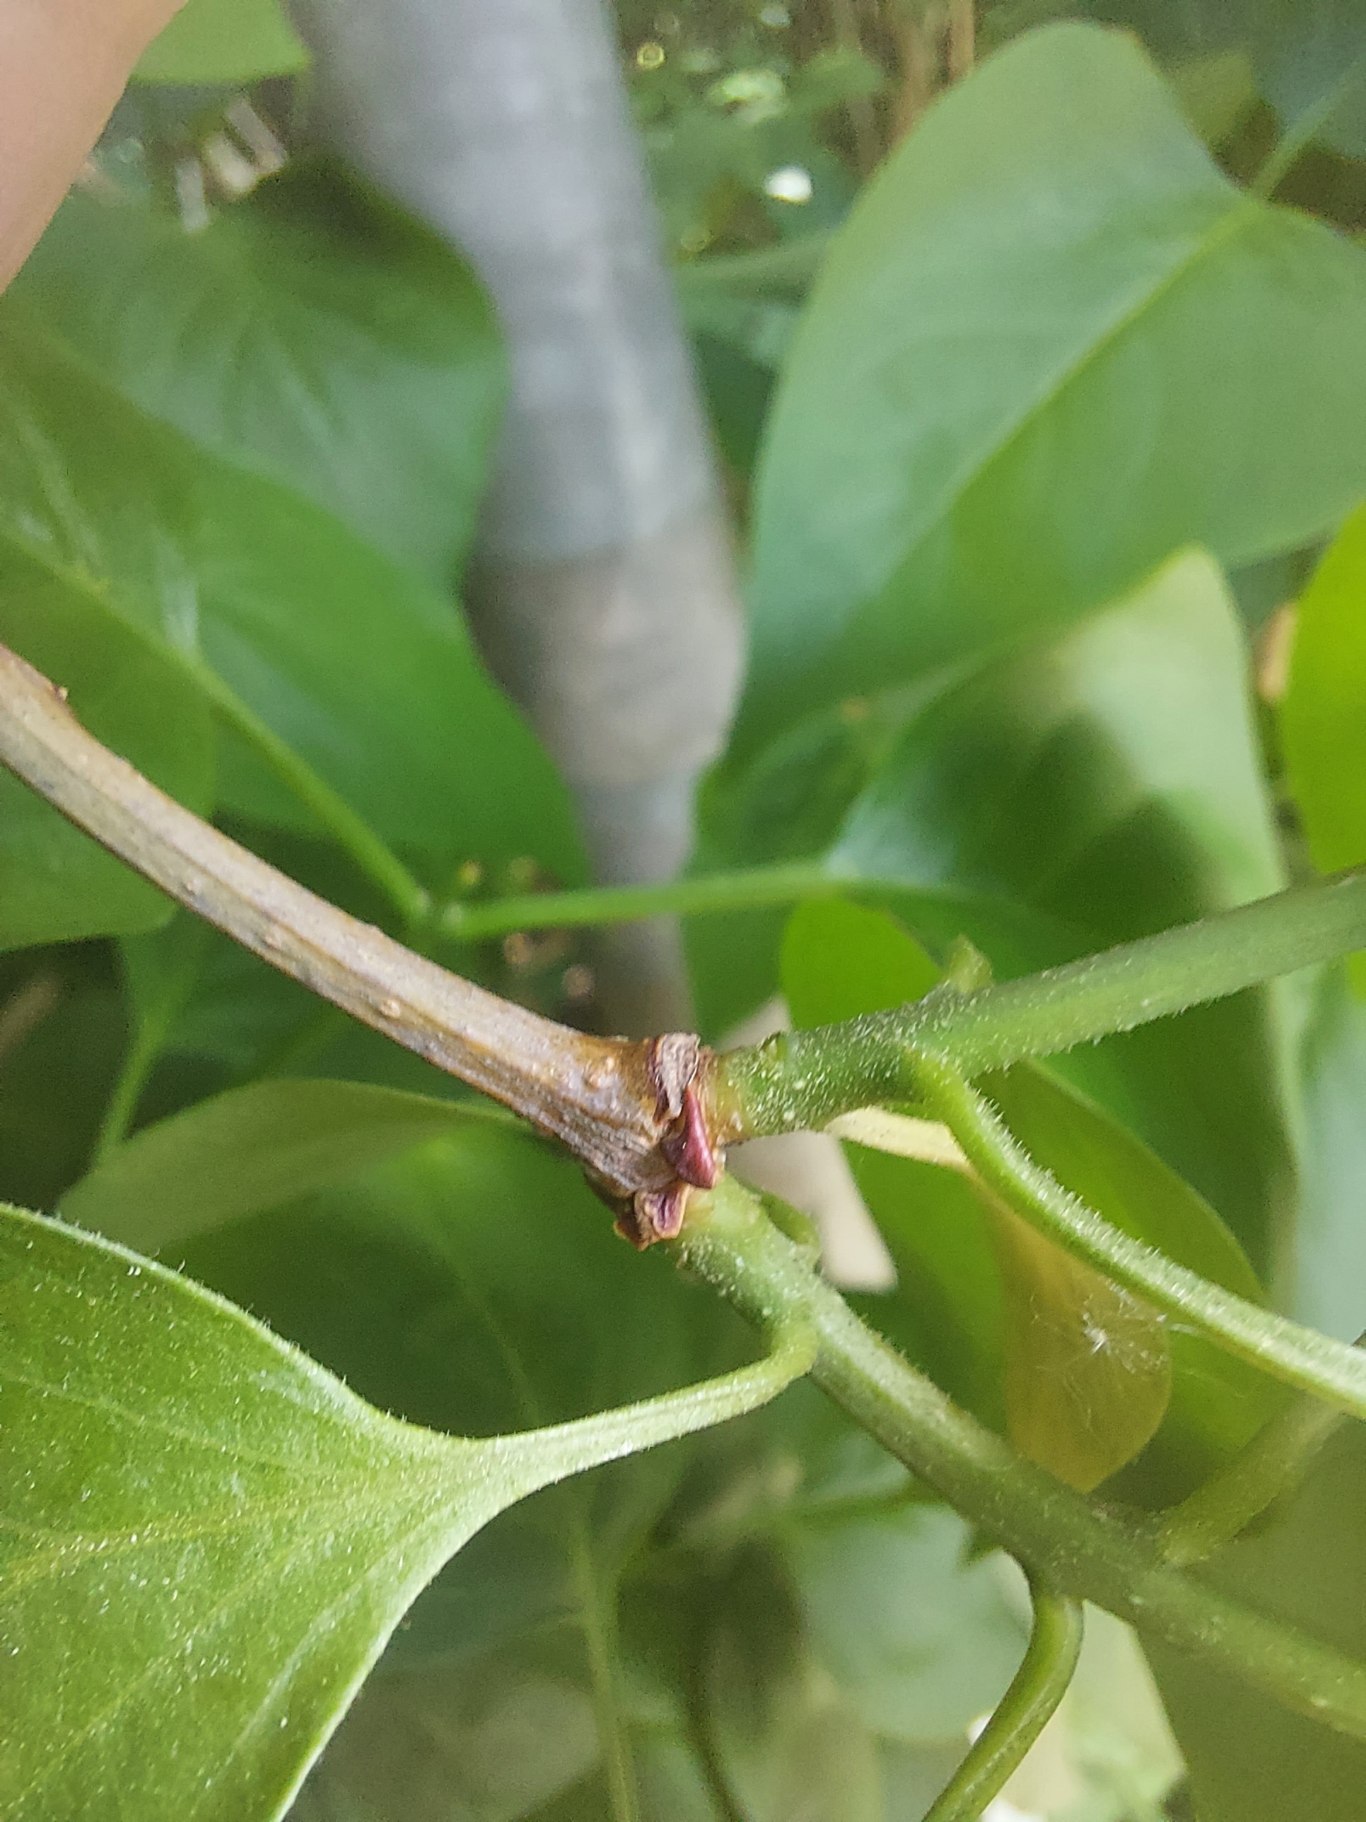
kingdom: Plantae
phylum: Tracheophyta
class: Magnoliopsida
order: Lamiales
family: Oleaceae
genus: Syringa
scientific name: Syringa vulgaris
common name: Syren
